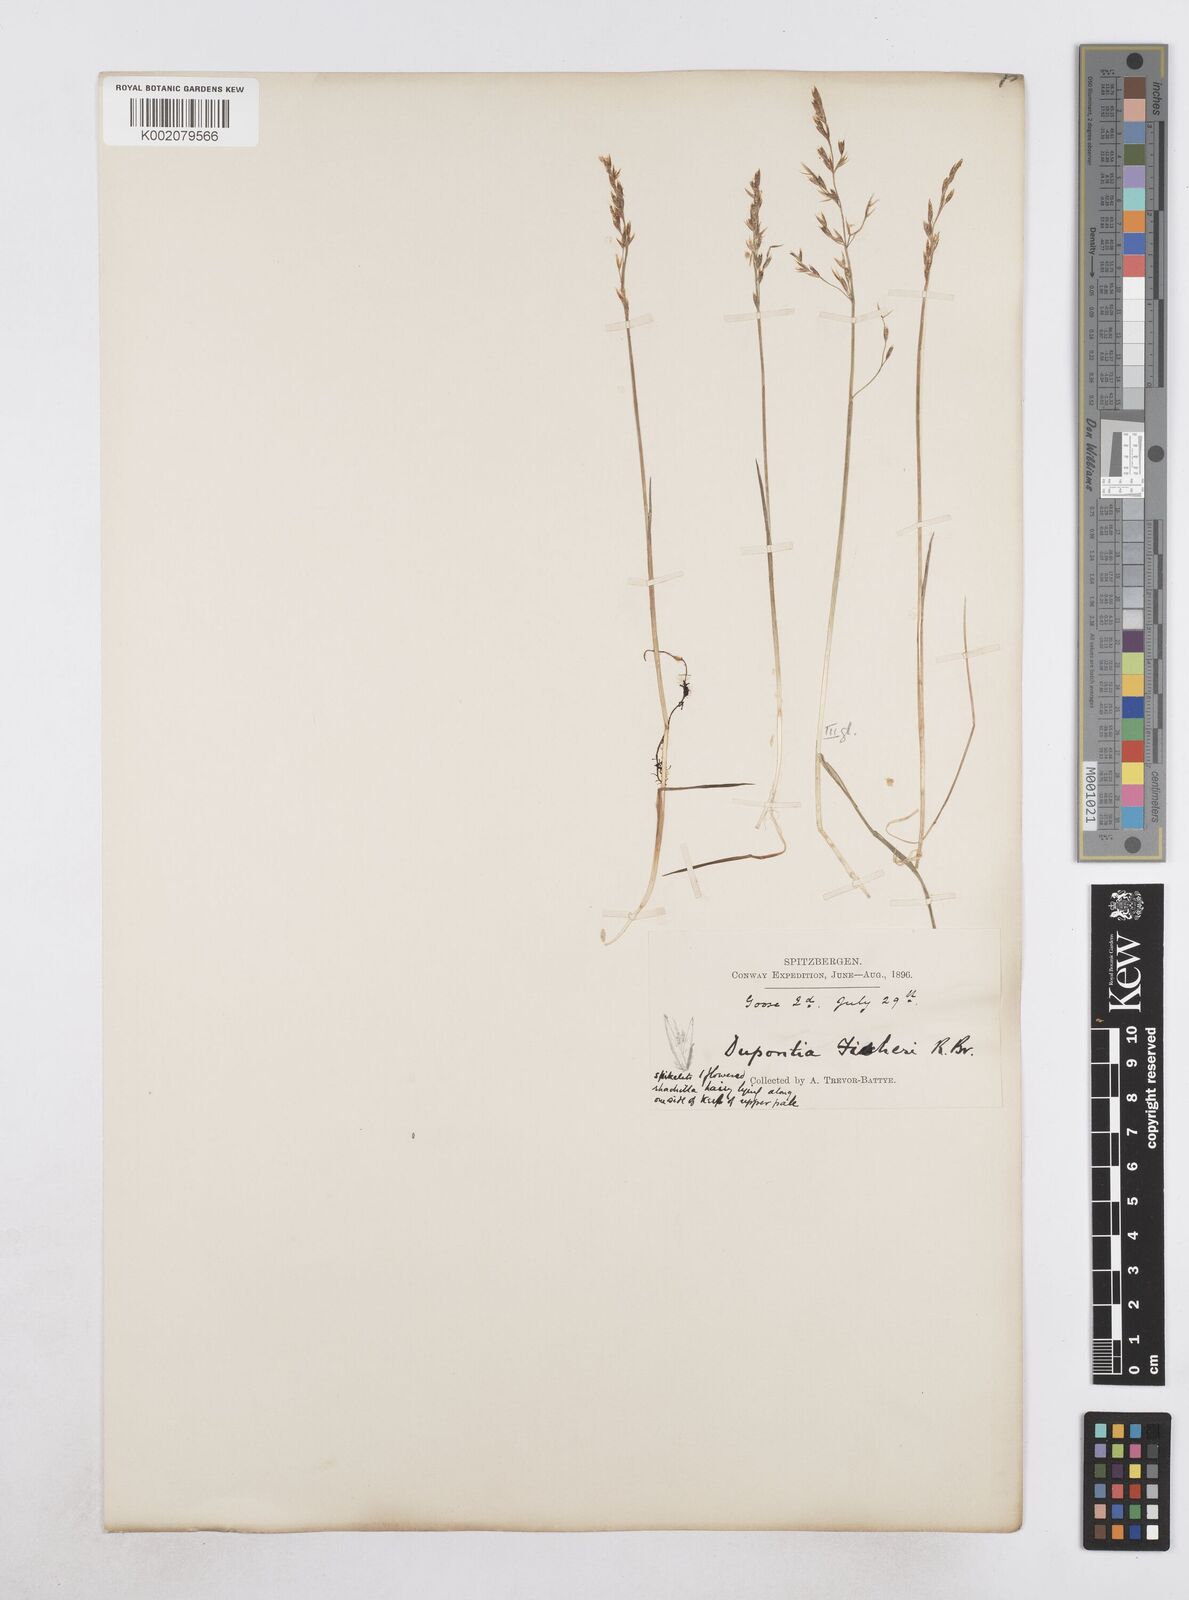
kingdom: Plantae
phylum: Tracheophyta
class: Liliopsida
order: Poales
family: Poaceae
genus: Dupontia
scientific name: Dupontia fisheri
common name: Tundra grass
